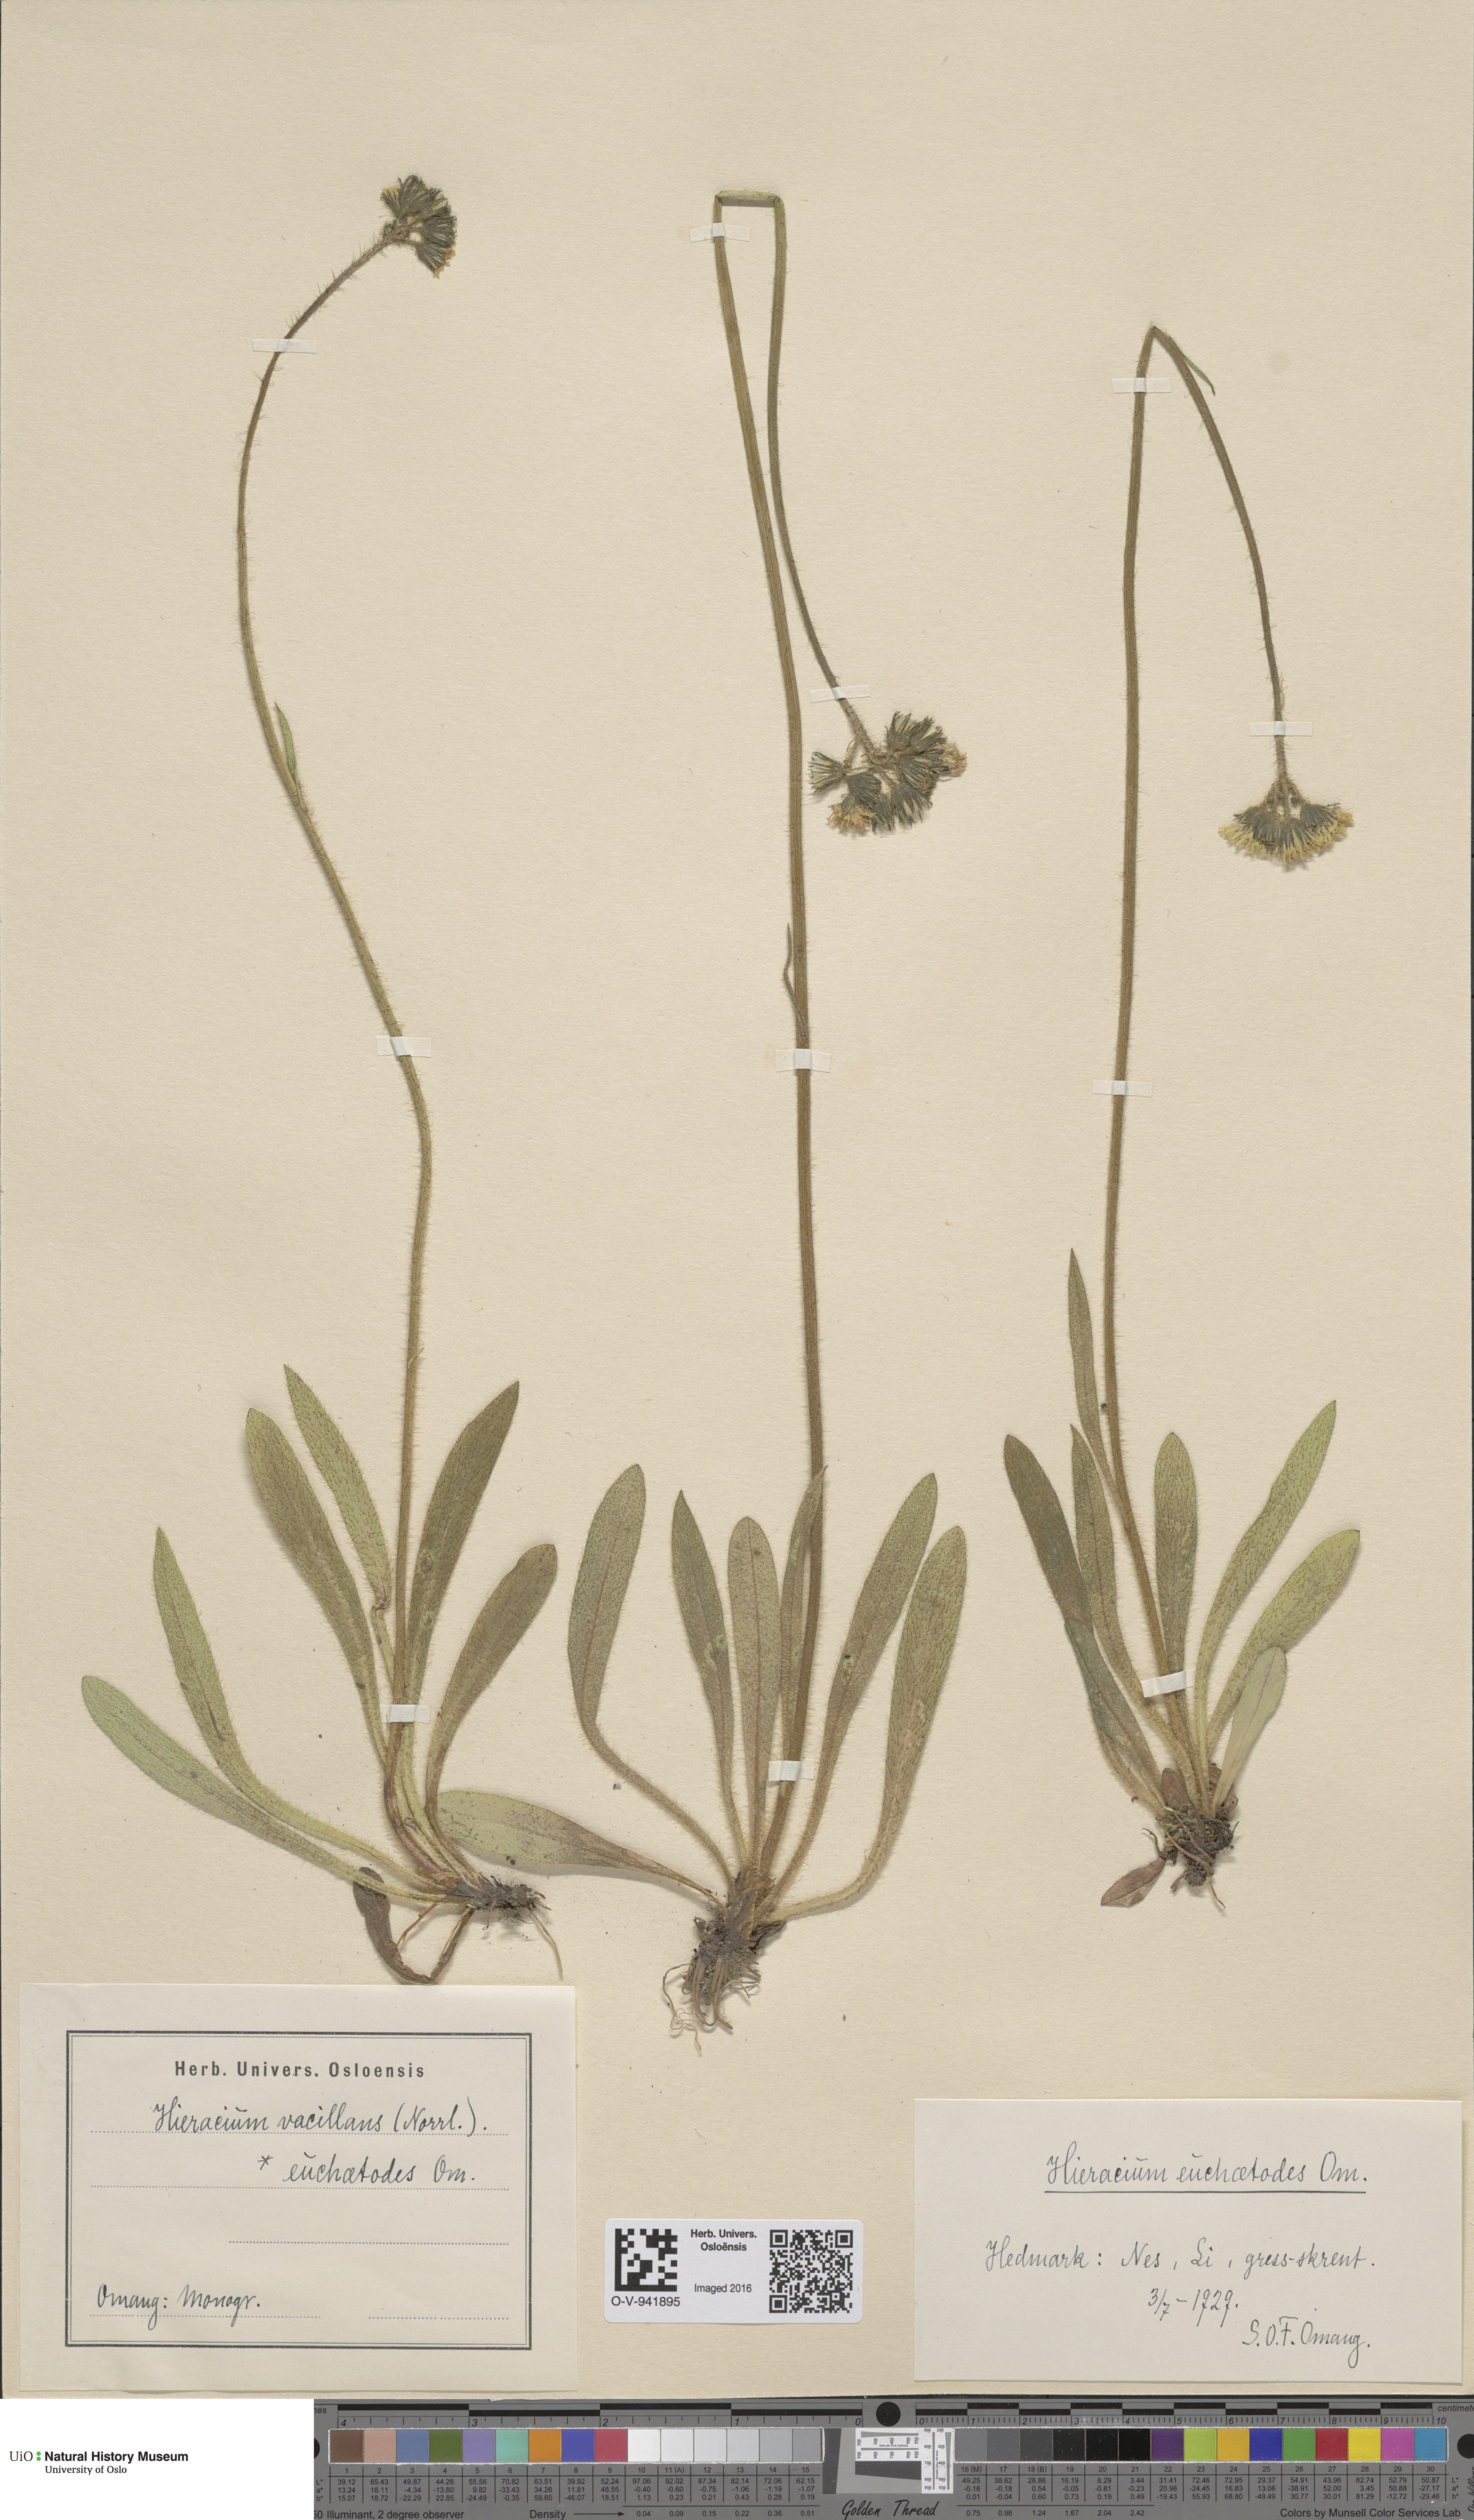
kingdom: Plantae
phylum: Tracheophyta
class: Magnoliopsida
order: Asterales
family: Asteraceae
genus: Pilosella
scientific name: Pilosella glomerata
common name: Queen devil hawkweed
